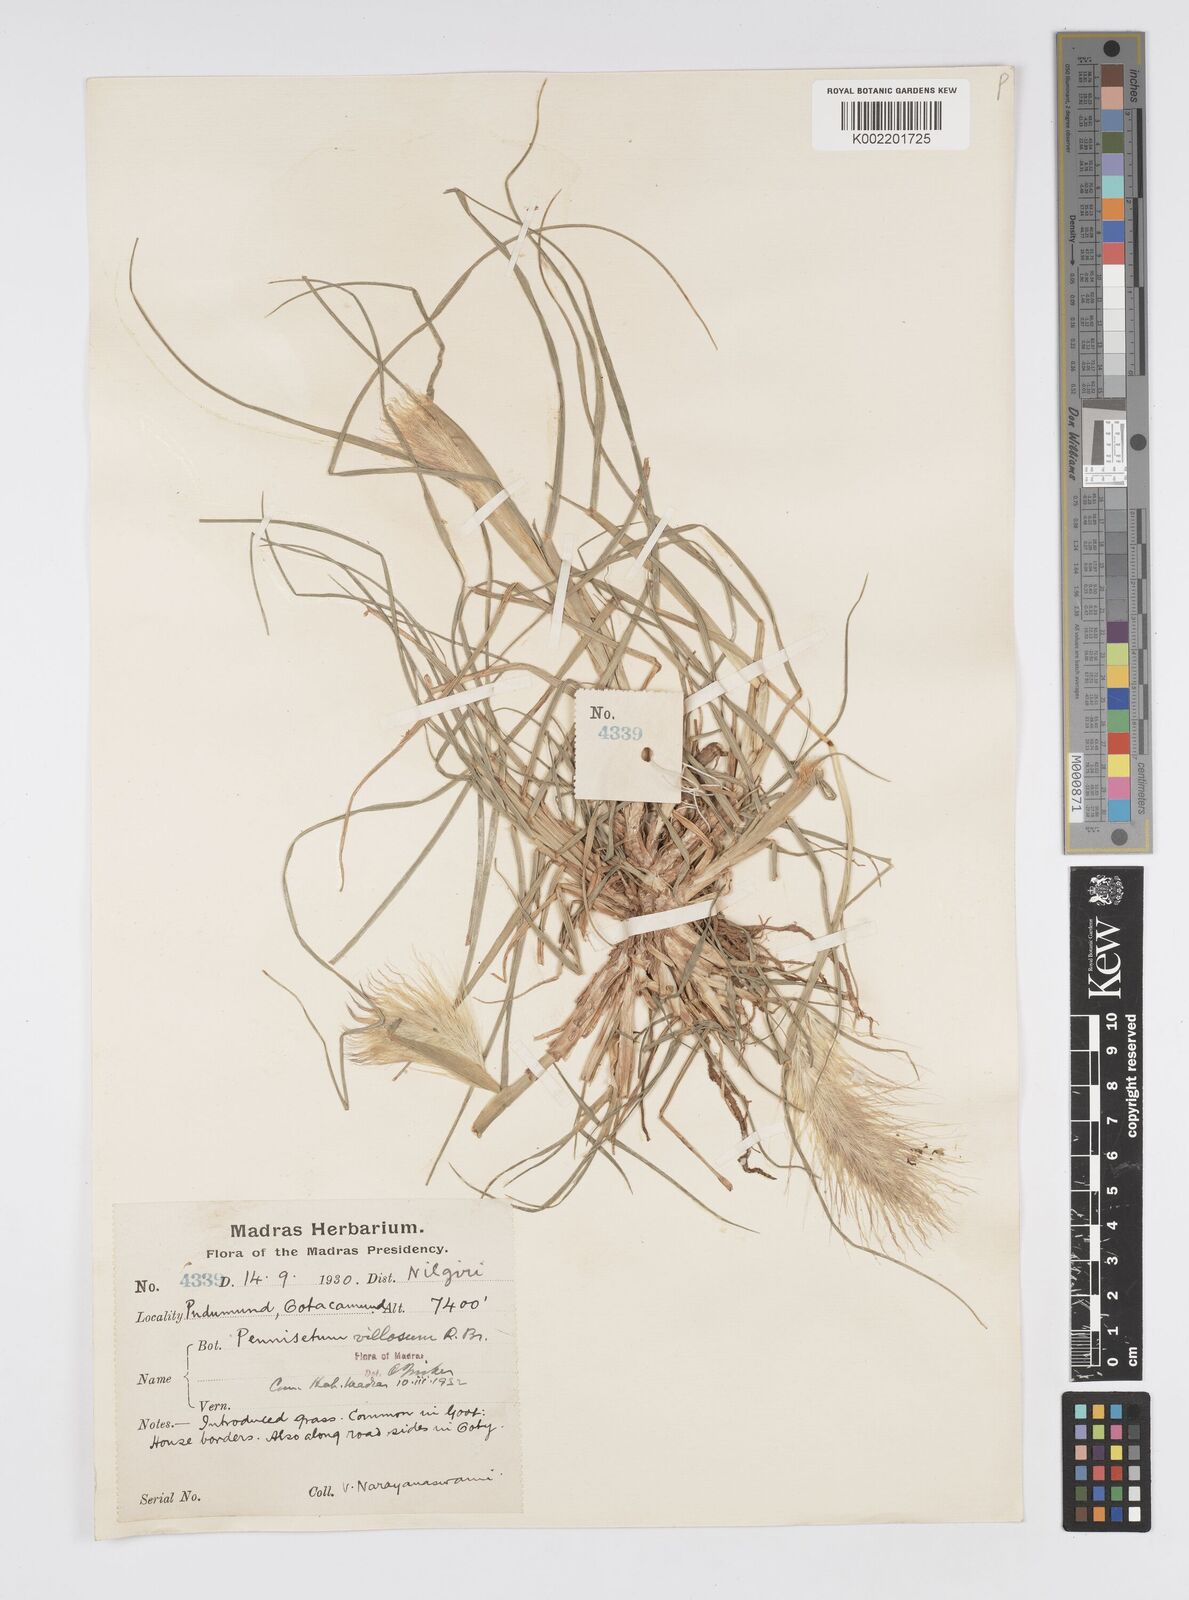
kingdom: Plantae
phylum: Tracheophyta
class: Liliopsida
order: Poales
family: Poaceae
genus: Cenchrus
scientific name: Cenchrus longisetus
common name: Feathertop
